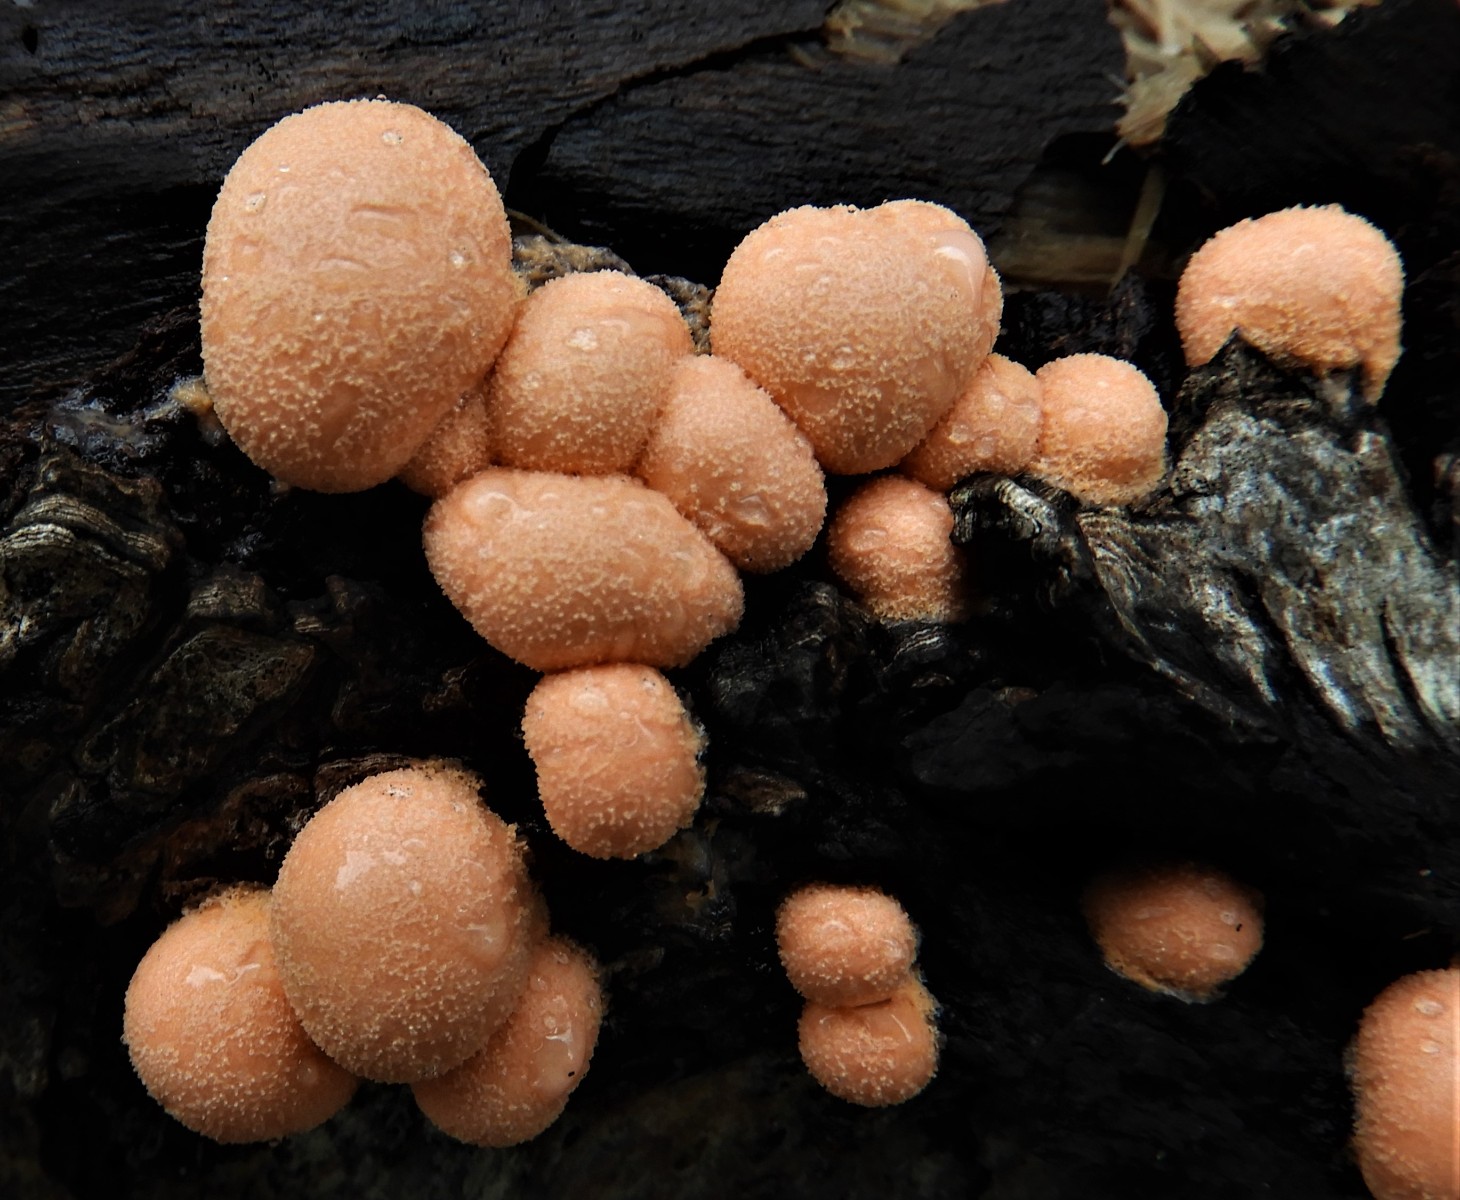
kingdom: Protozoa
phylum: Mycetozoa
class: Myxomycetes
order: Cribrariales
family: Tubiferaceae
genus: Lycogala
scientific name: Lycogala epidendrum
